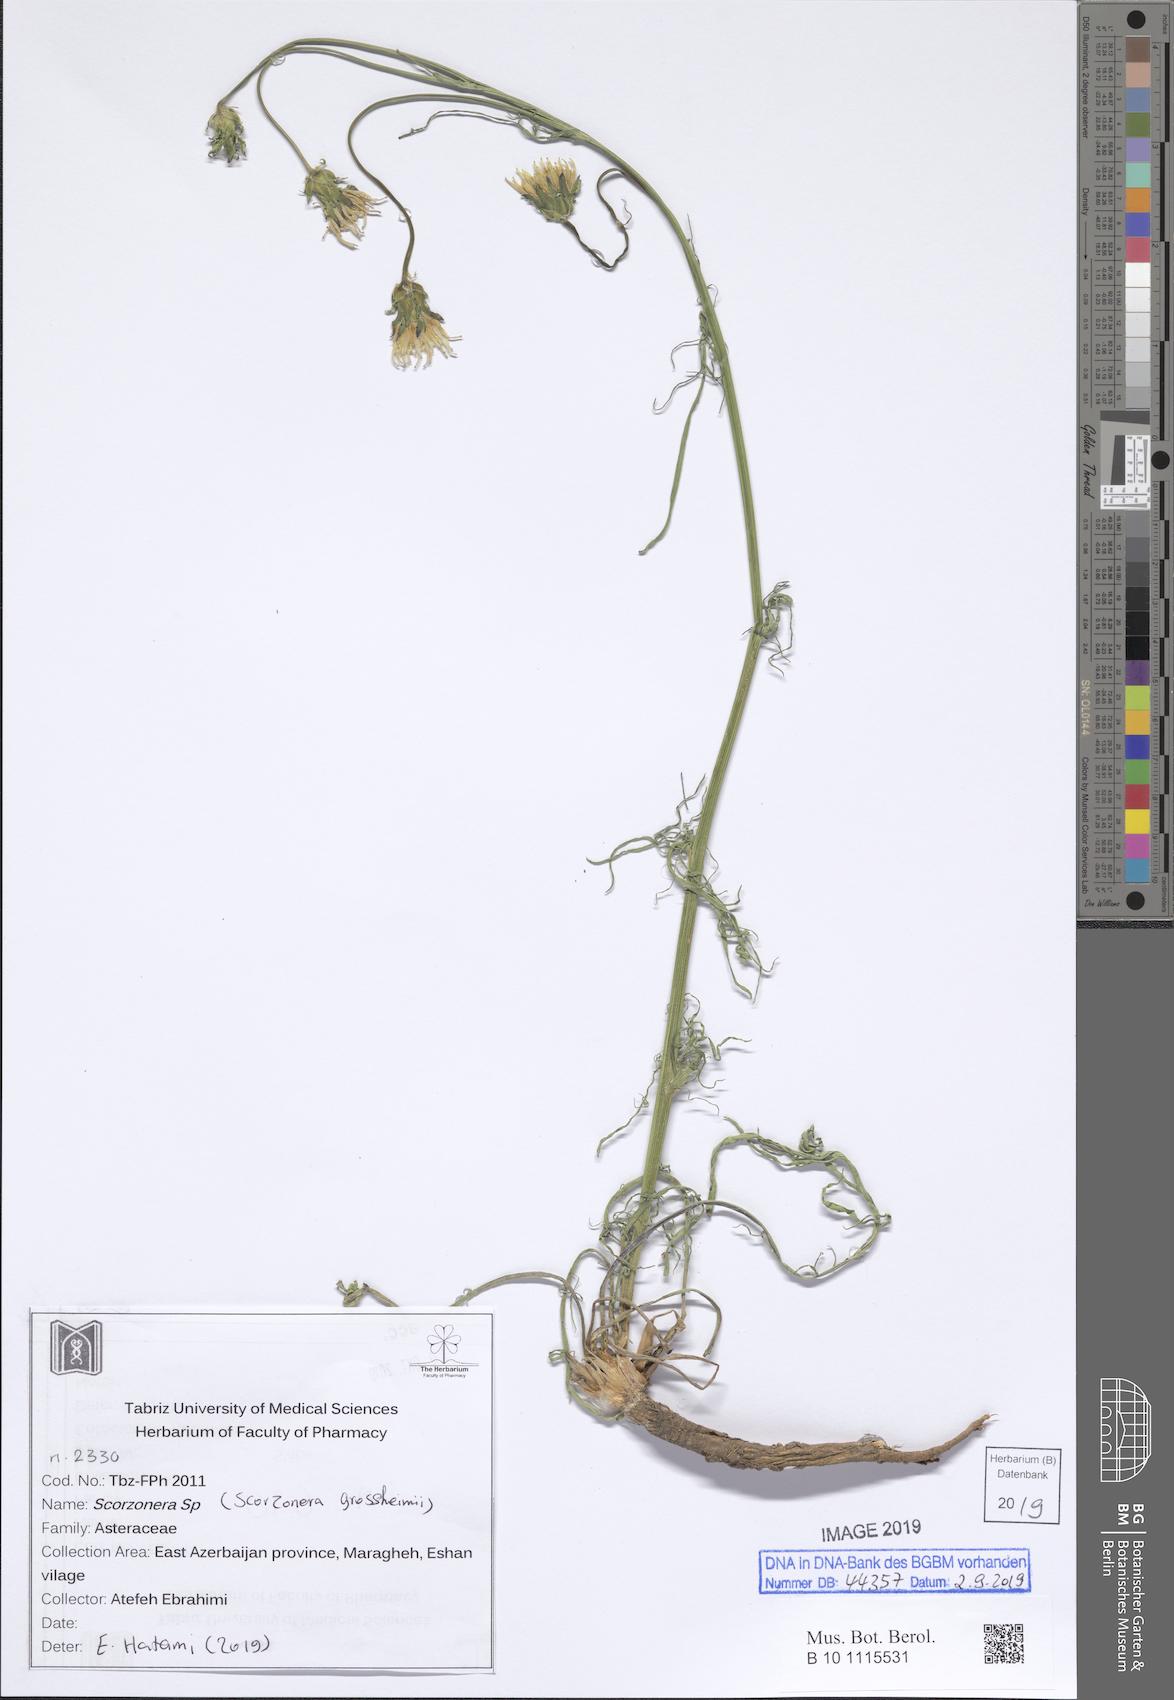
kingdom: Plantae
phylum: Tracheophyta
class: Magnoliopsida
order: Asterales
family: Asteraceae
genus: Scorzonera
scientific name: Scorzonera grossheimii
